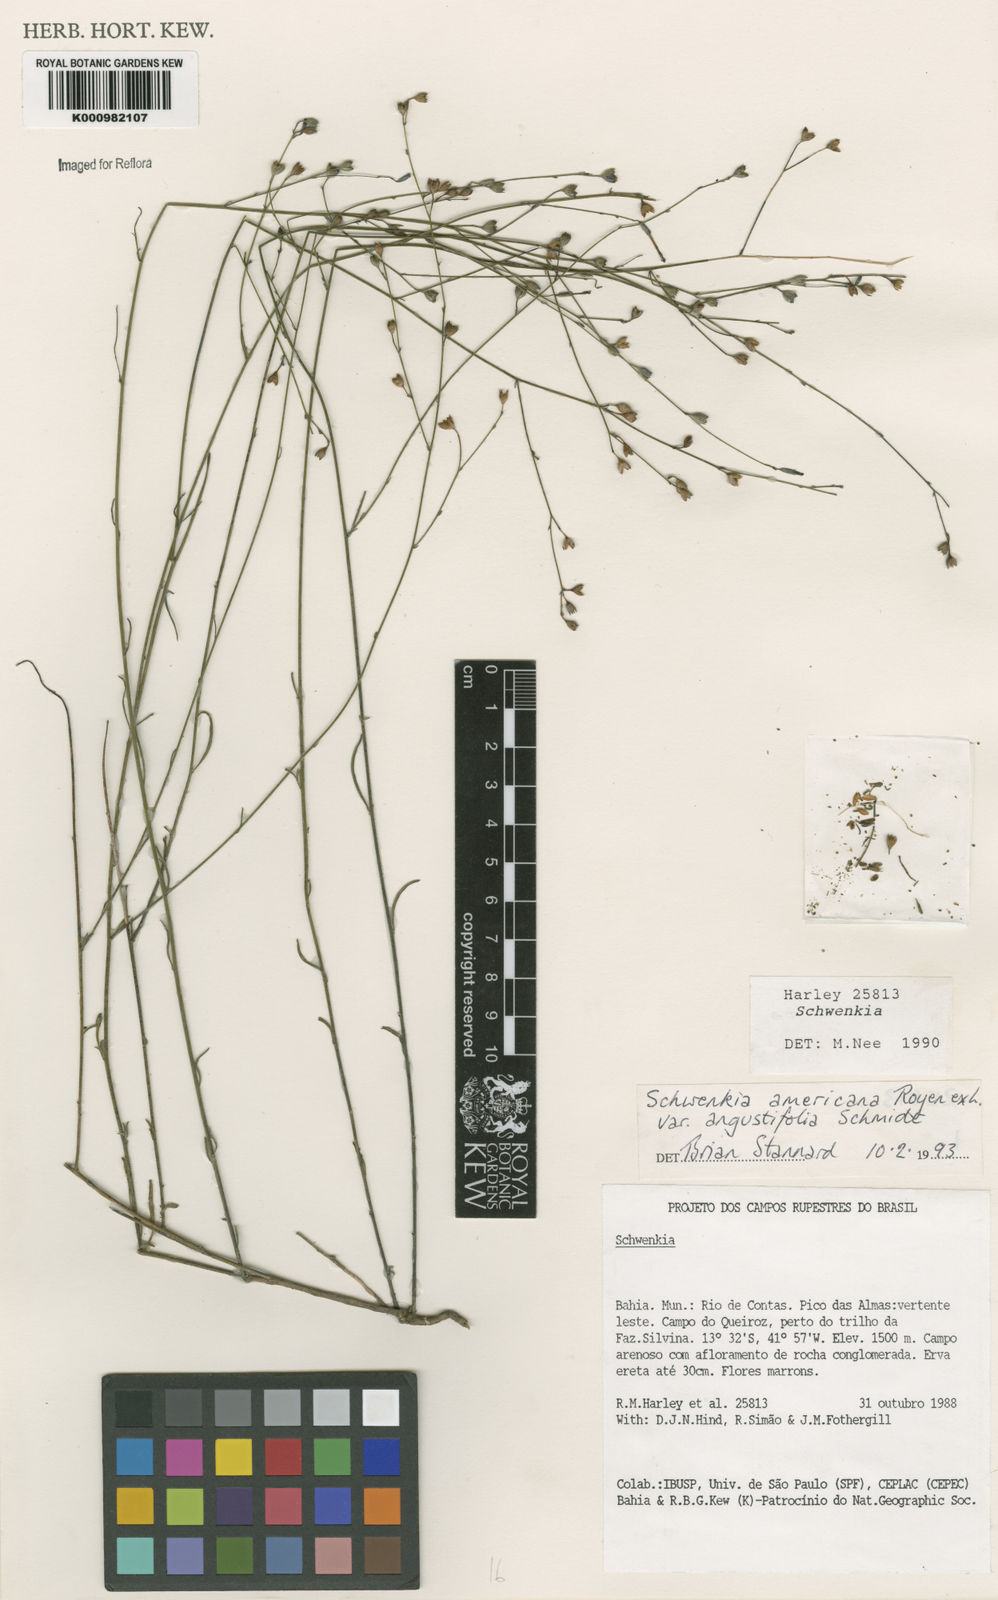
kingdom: Plantae
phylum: Tracheophyta
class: Magnoliopsida
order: Solanales
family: Solanaceae
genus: Schwenckia
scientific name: Schwenckia americana
